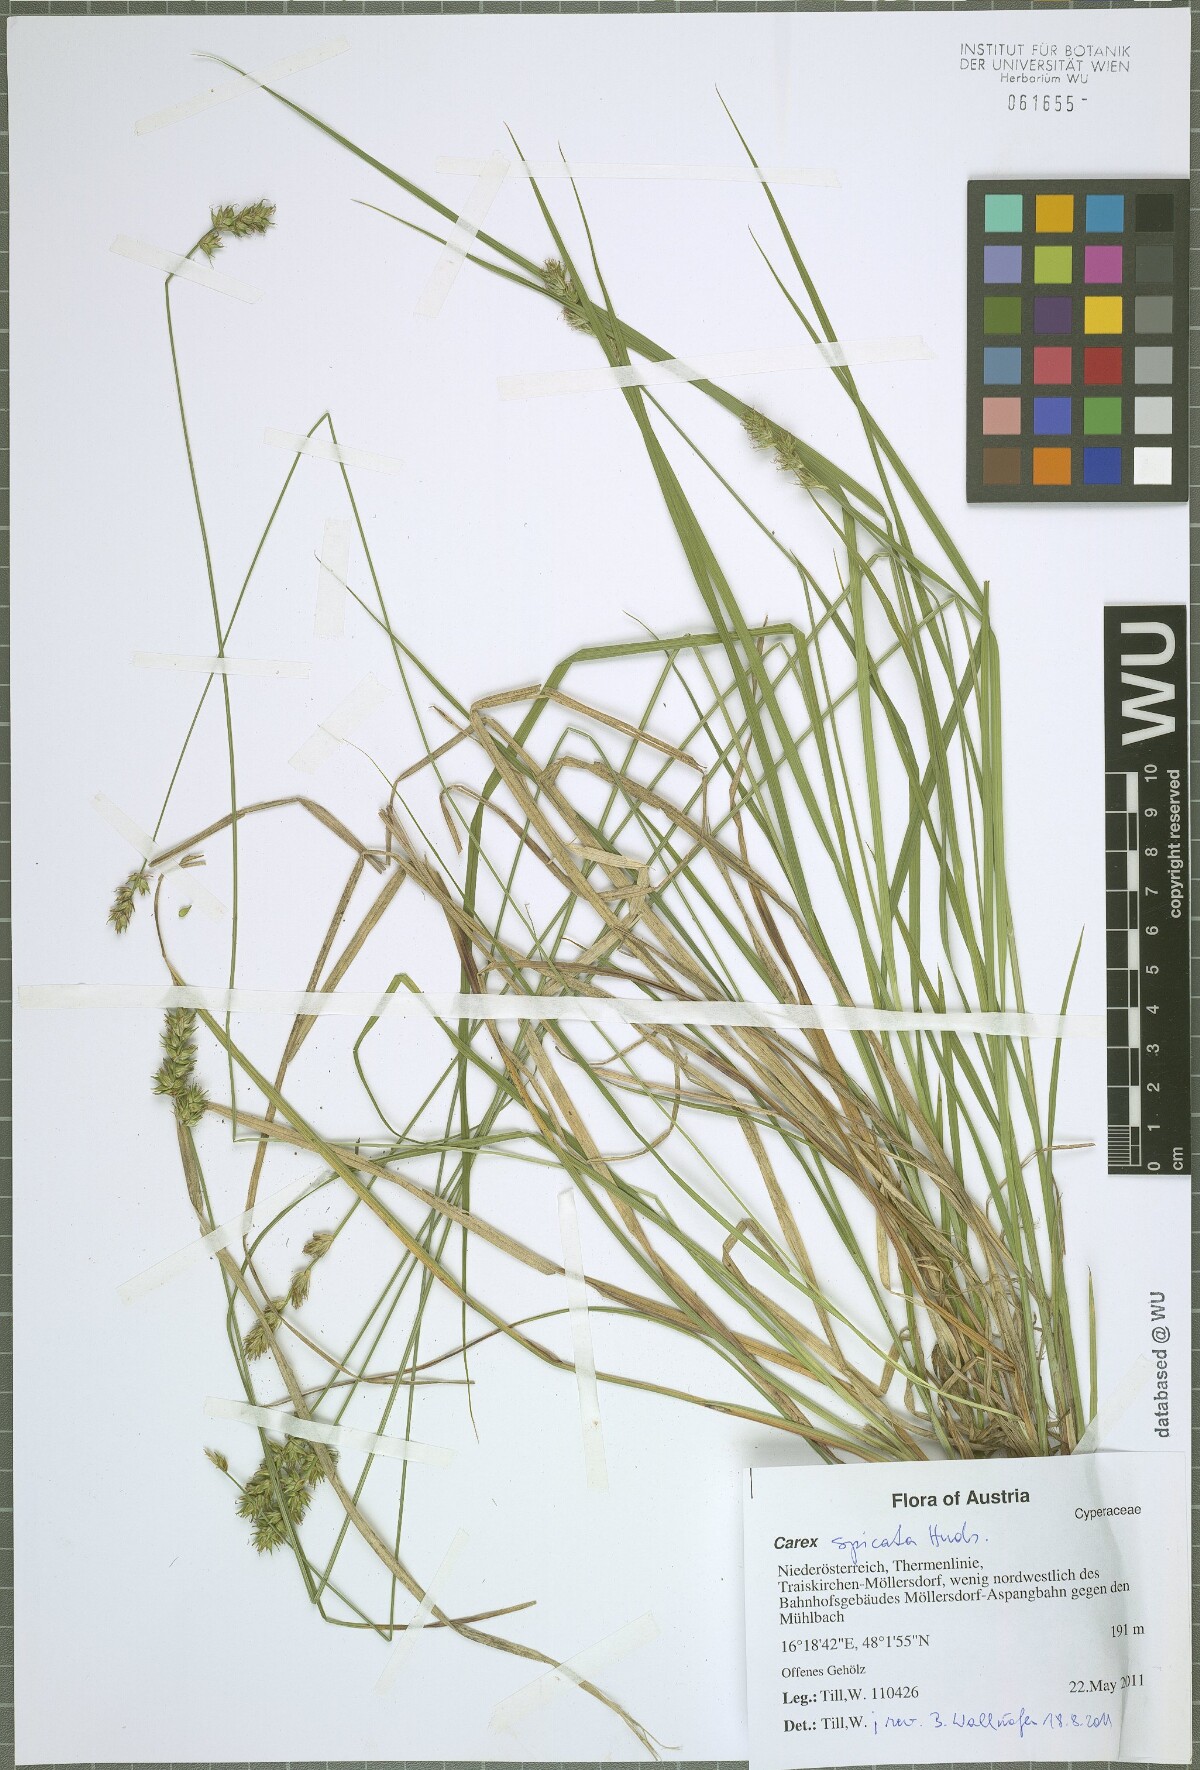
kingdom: Plantae
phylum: Tracheophyta
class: Liliopsida
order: Poales
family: Cyperaceae
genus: Carex
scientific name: Carex spicata
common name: Spiked sedge
